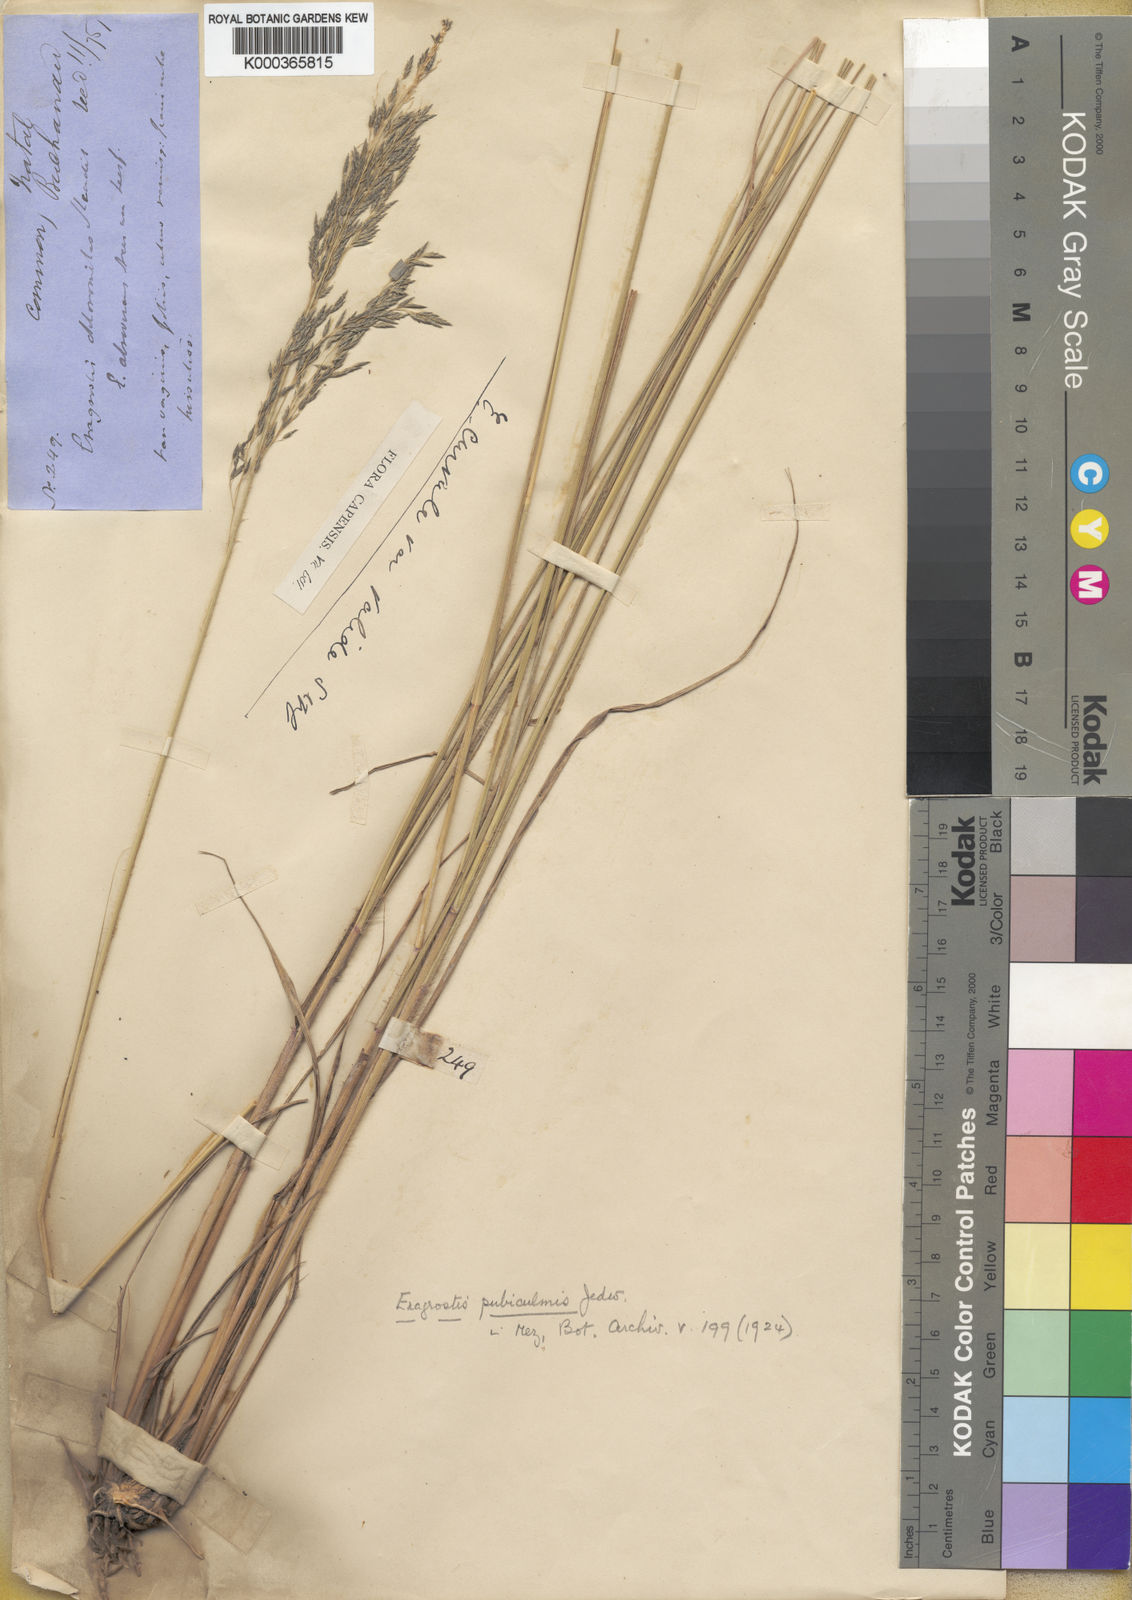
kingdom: Plantae
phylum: Tracheophyta
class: Liliopsida
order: Poales
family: Poaceae
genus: Eragrostis
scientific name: Eragrostis curvula
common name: African love-grass
